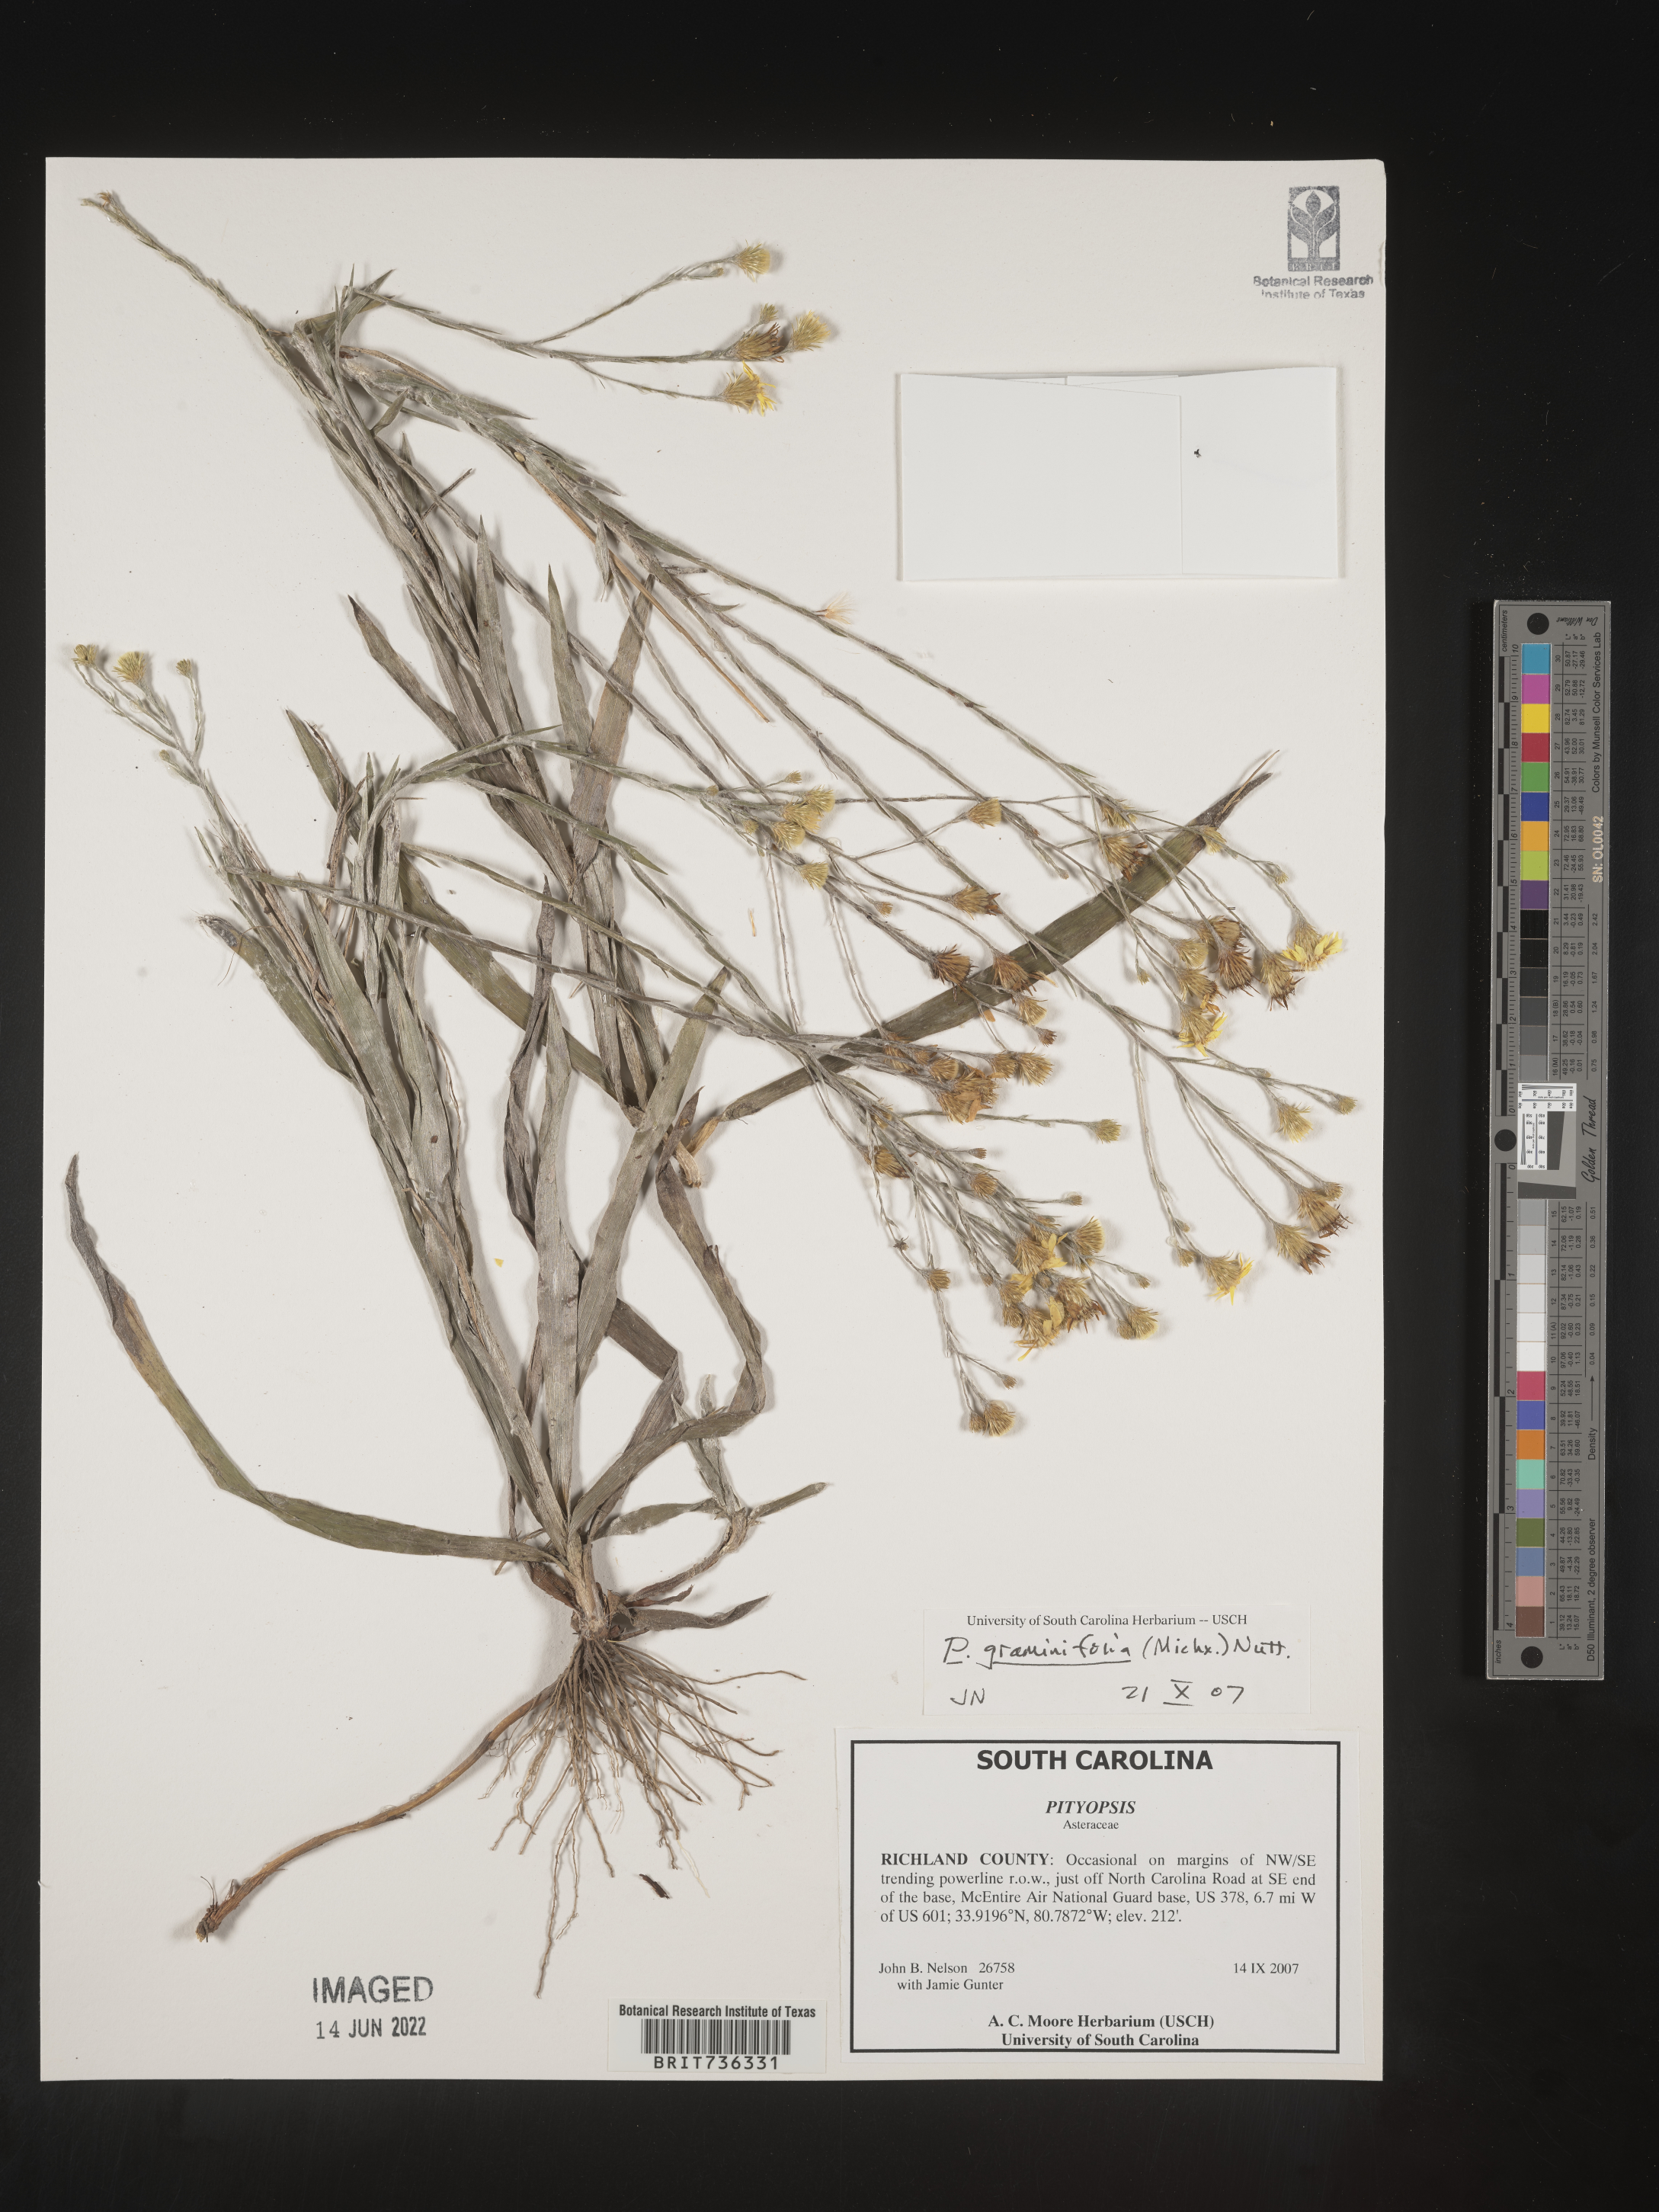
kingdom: Plantae
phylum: Tracheophyta
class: Magnoliopsida
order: Asterales
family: Asteraceae
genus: Pityopsis
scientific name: Pityopsis microcephala
